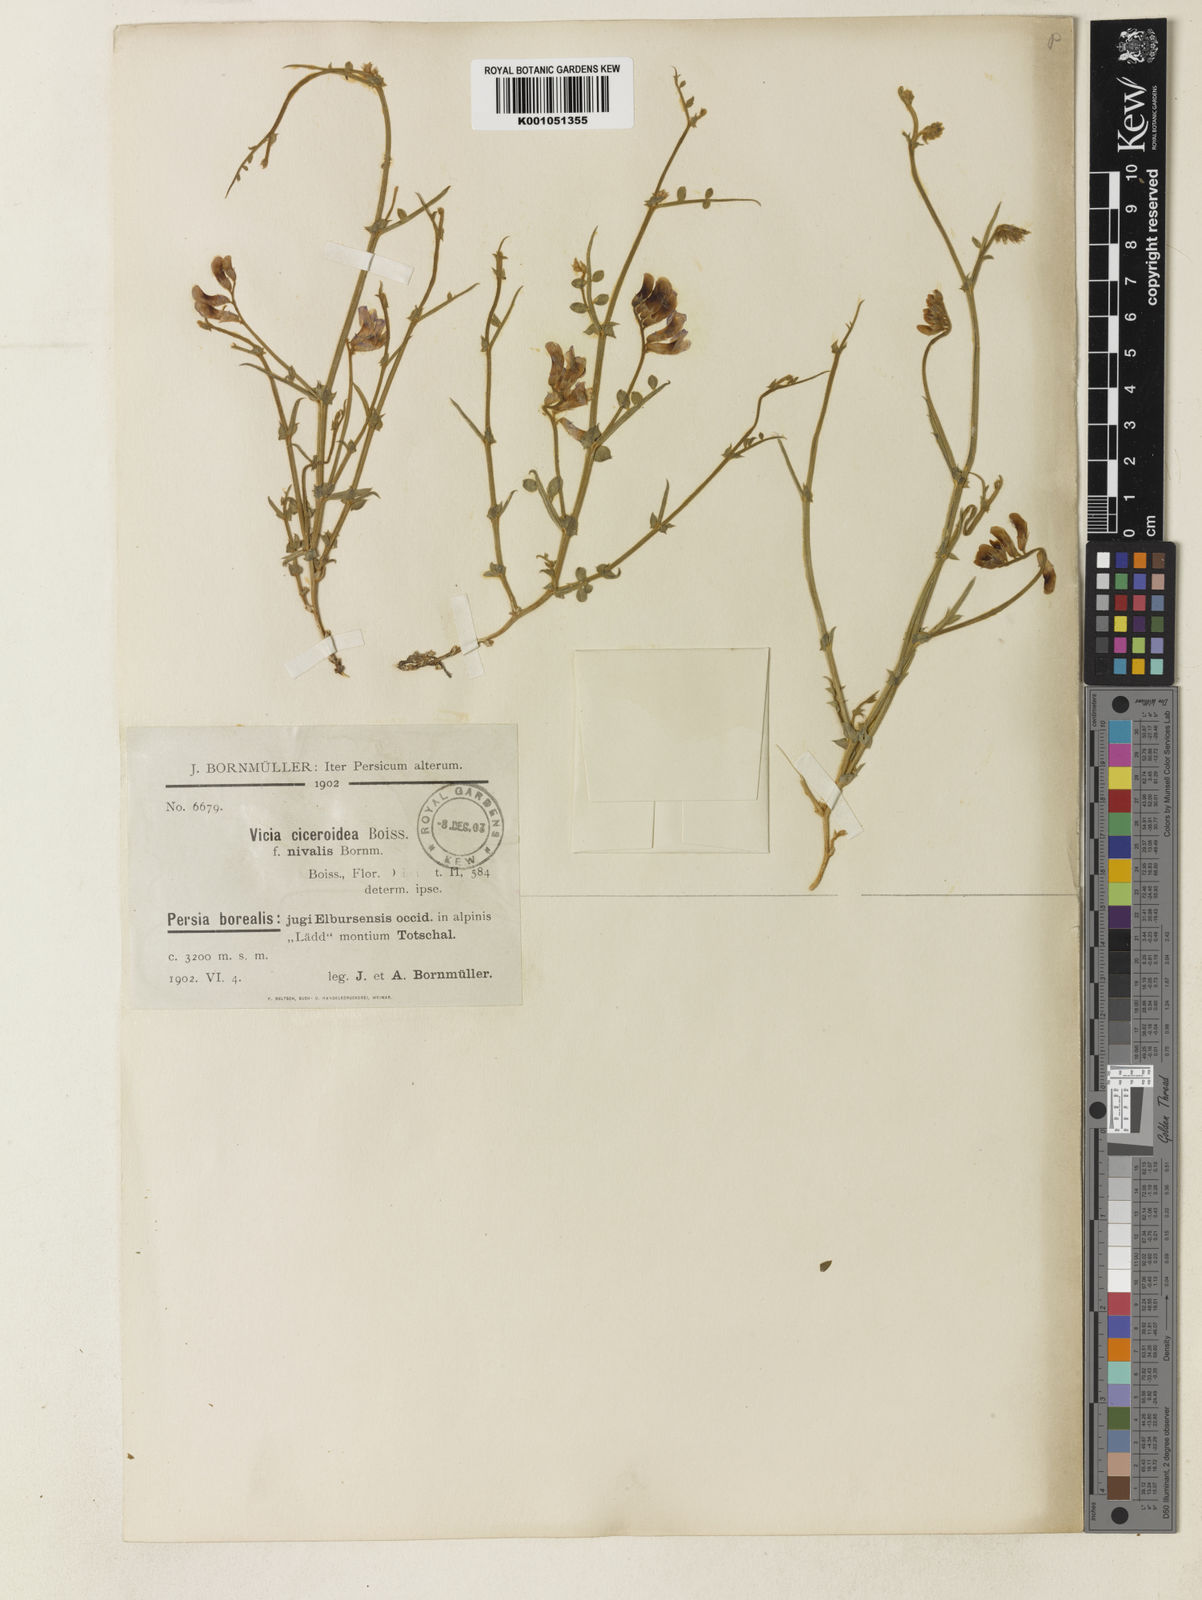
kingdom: Plantae
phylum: Tracheophyta
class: Magnoliopsida
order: Fabales
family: Fabaceae
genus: Vicia
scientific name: Vicia ciceroidea
